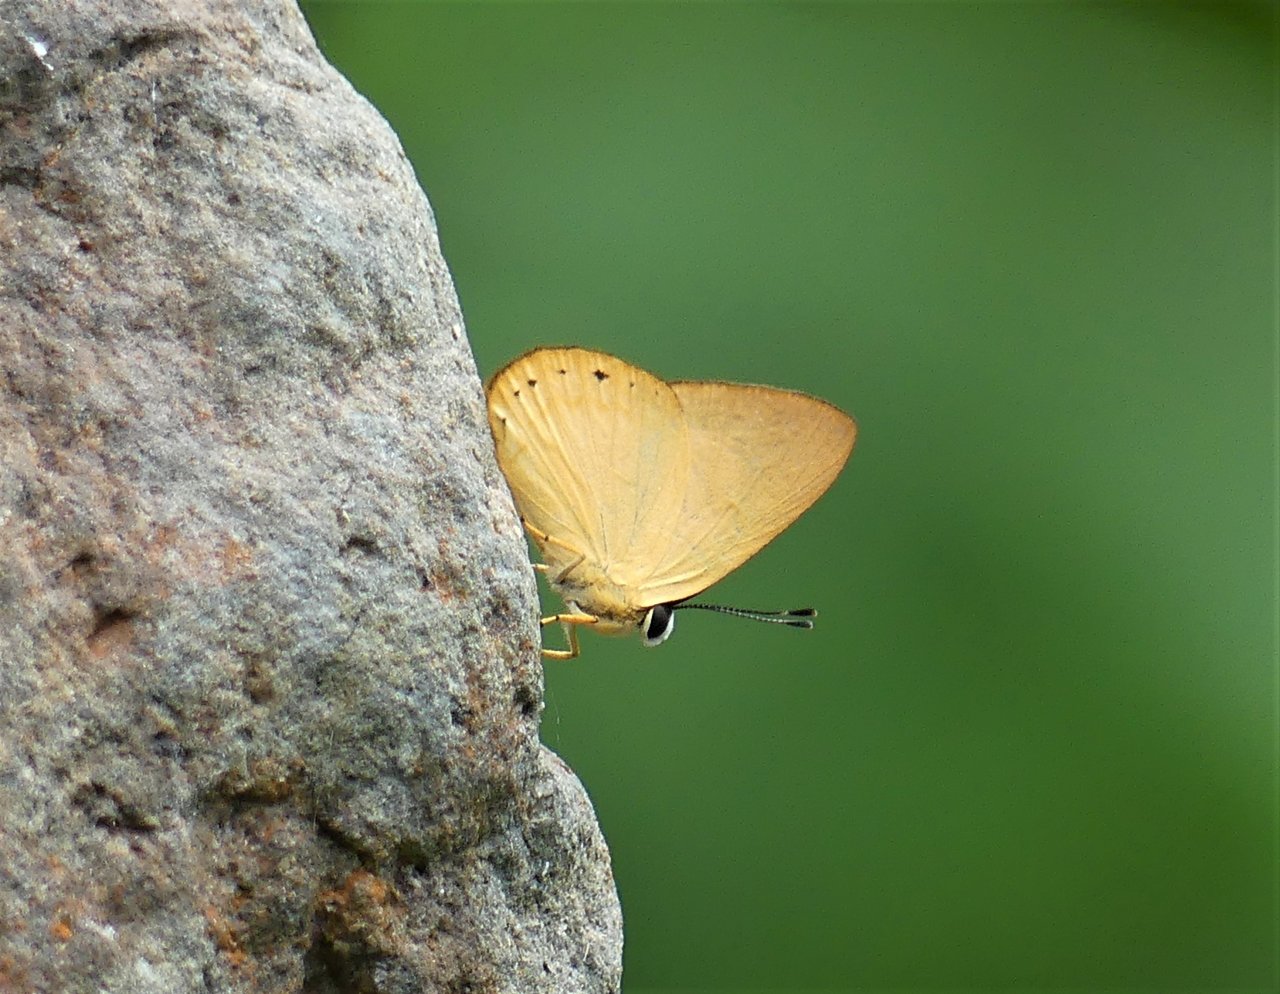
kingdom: Animalia
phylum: Arthropoda
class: Insecta
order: Lepidoptera
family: Lycaenidae
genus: Euselasia
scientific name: Euselasia chrysippe
